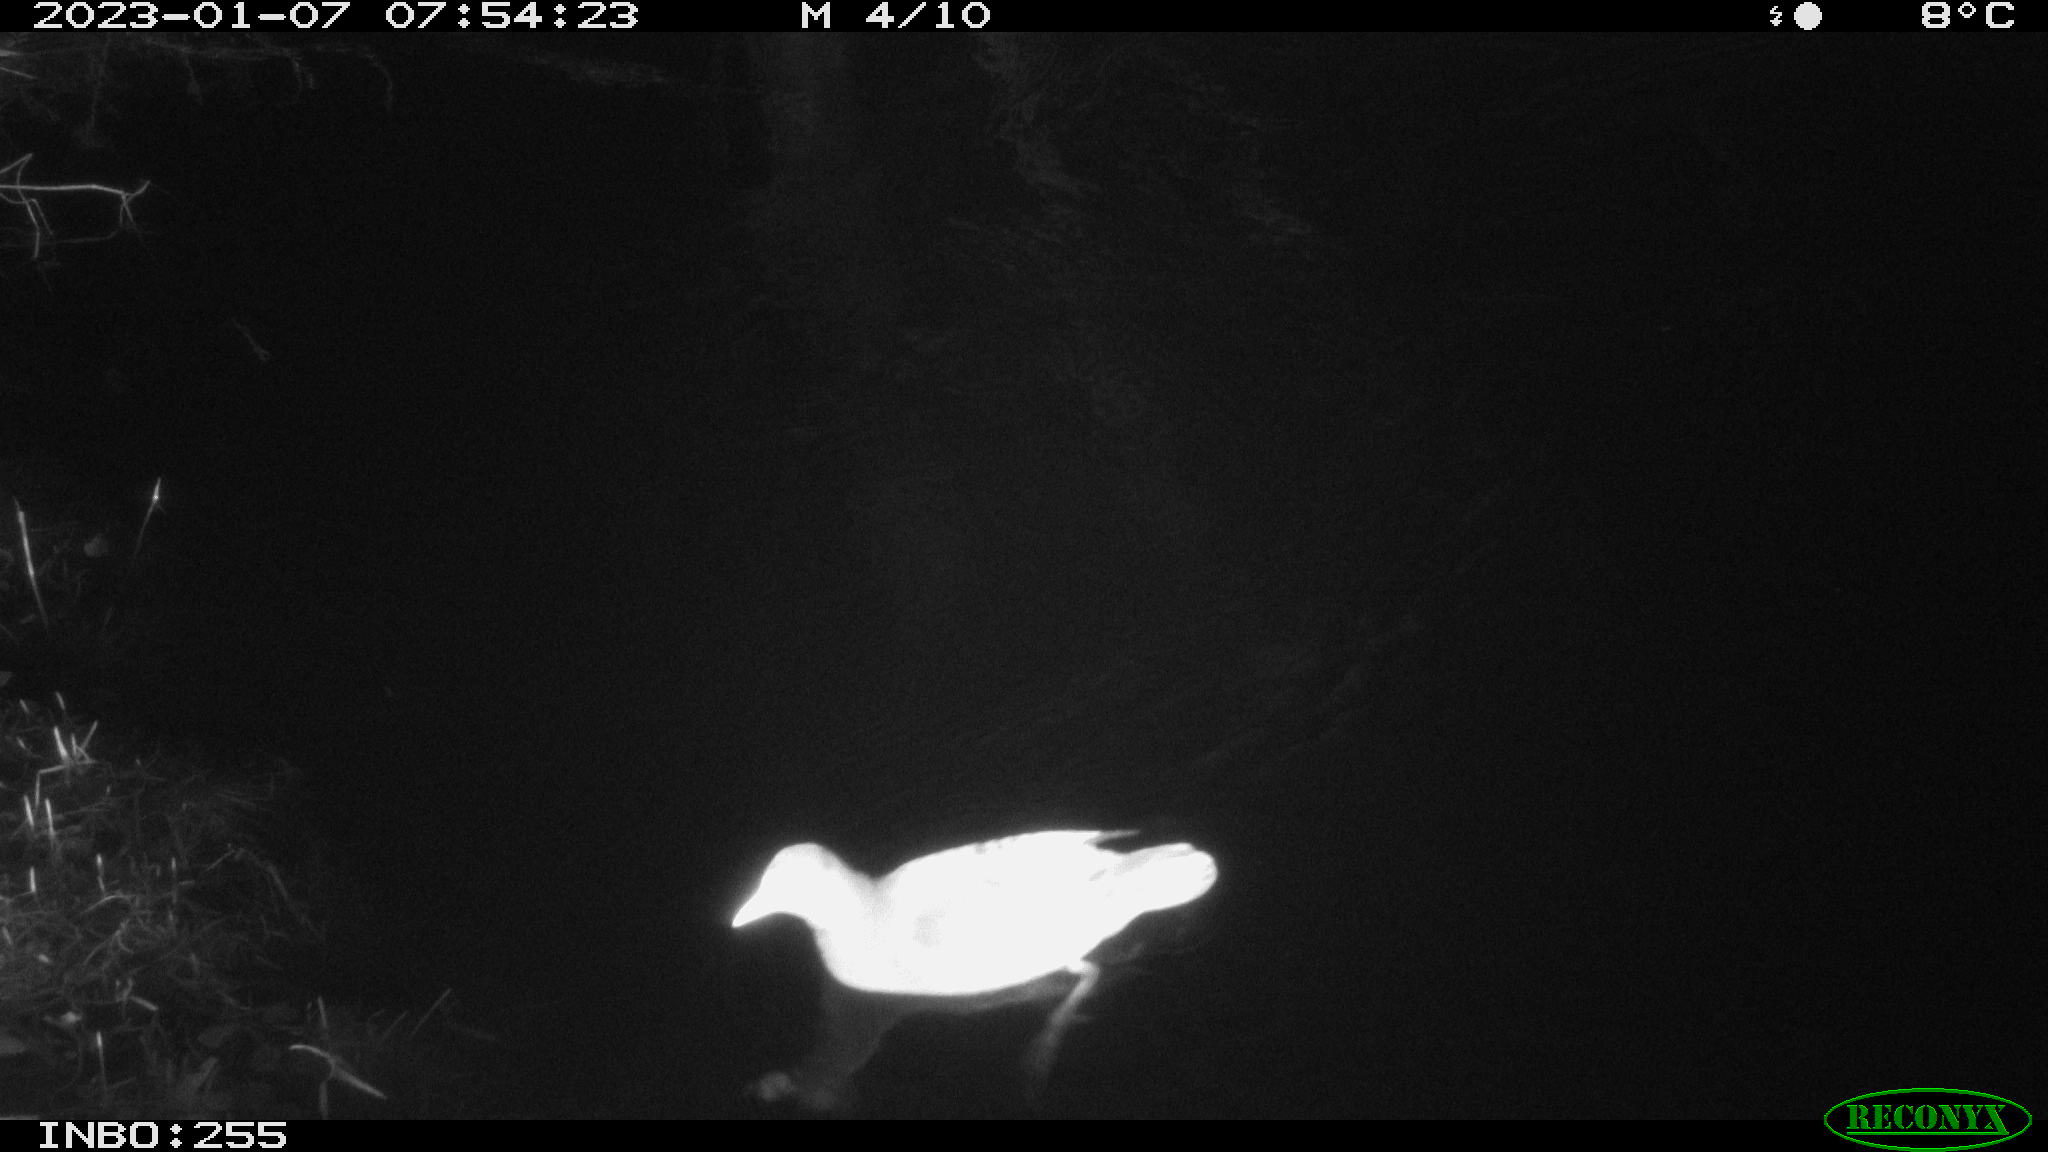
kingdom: Animalia
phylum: Chordata
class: Aves
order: Anseriformes
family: Anatidae
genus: Anas
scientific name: Anas
